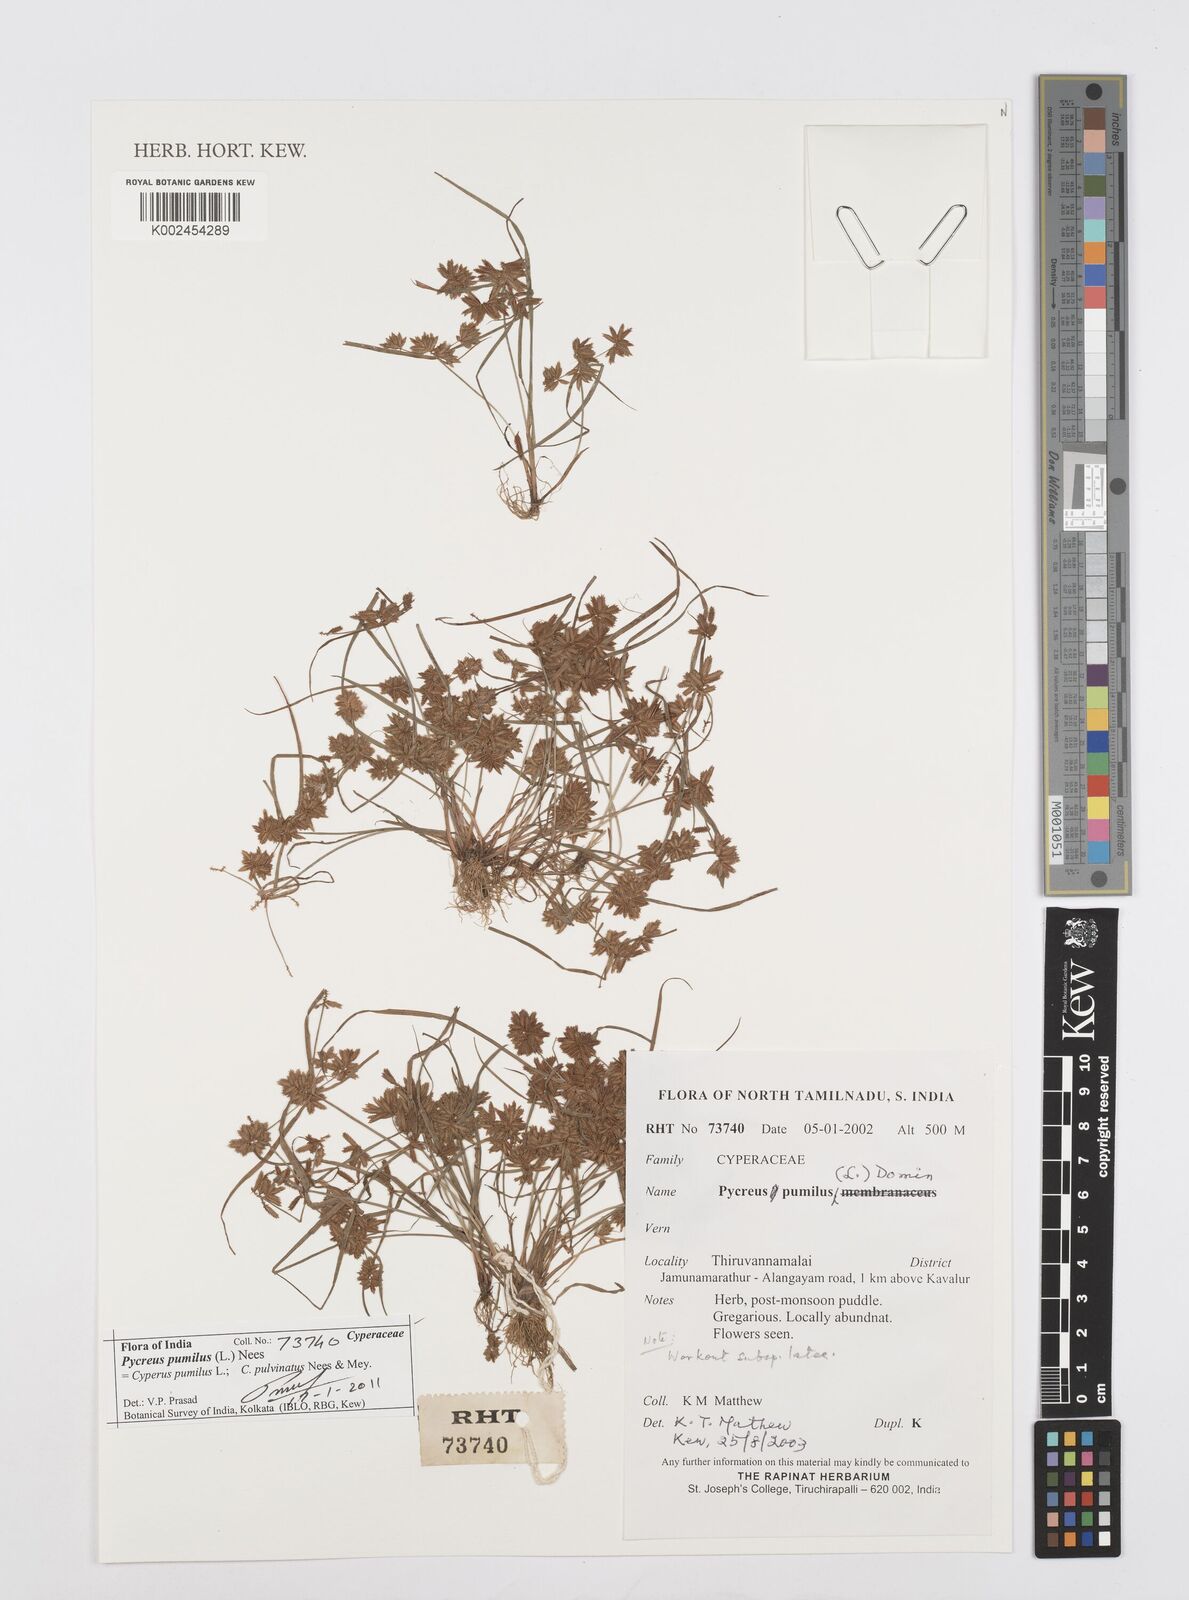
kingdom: Plantae
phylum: Tracheophyta
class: Liliopsida
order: Poales
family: Cyperaceae
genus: Cyperus
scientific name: Cyperus pumilus
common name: Low flatsedge
